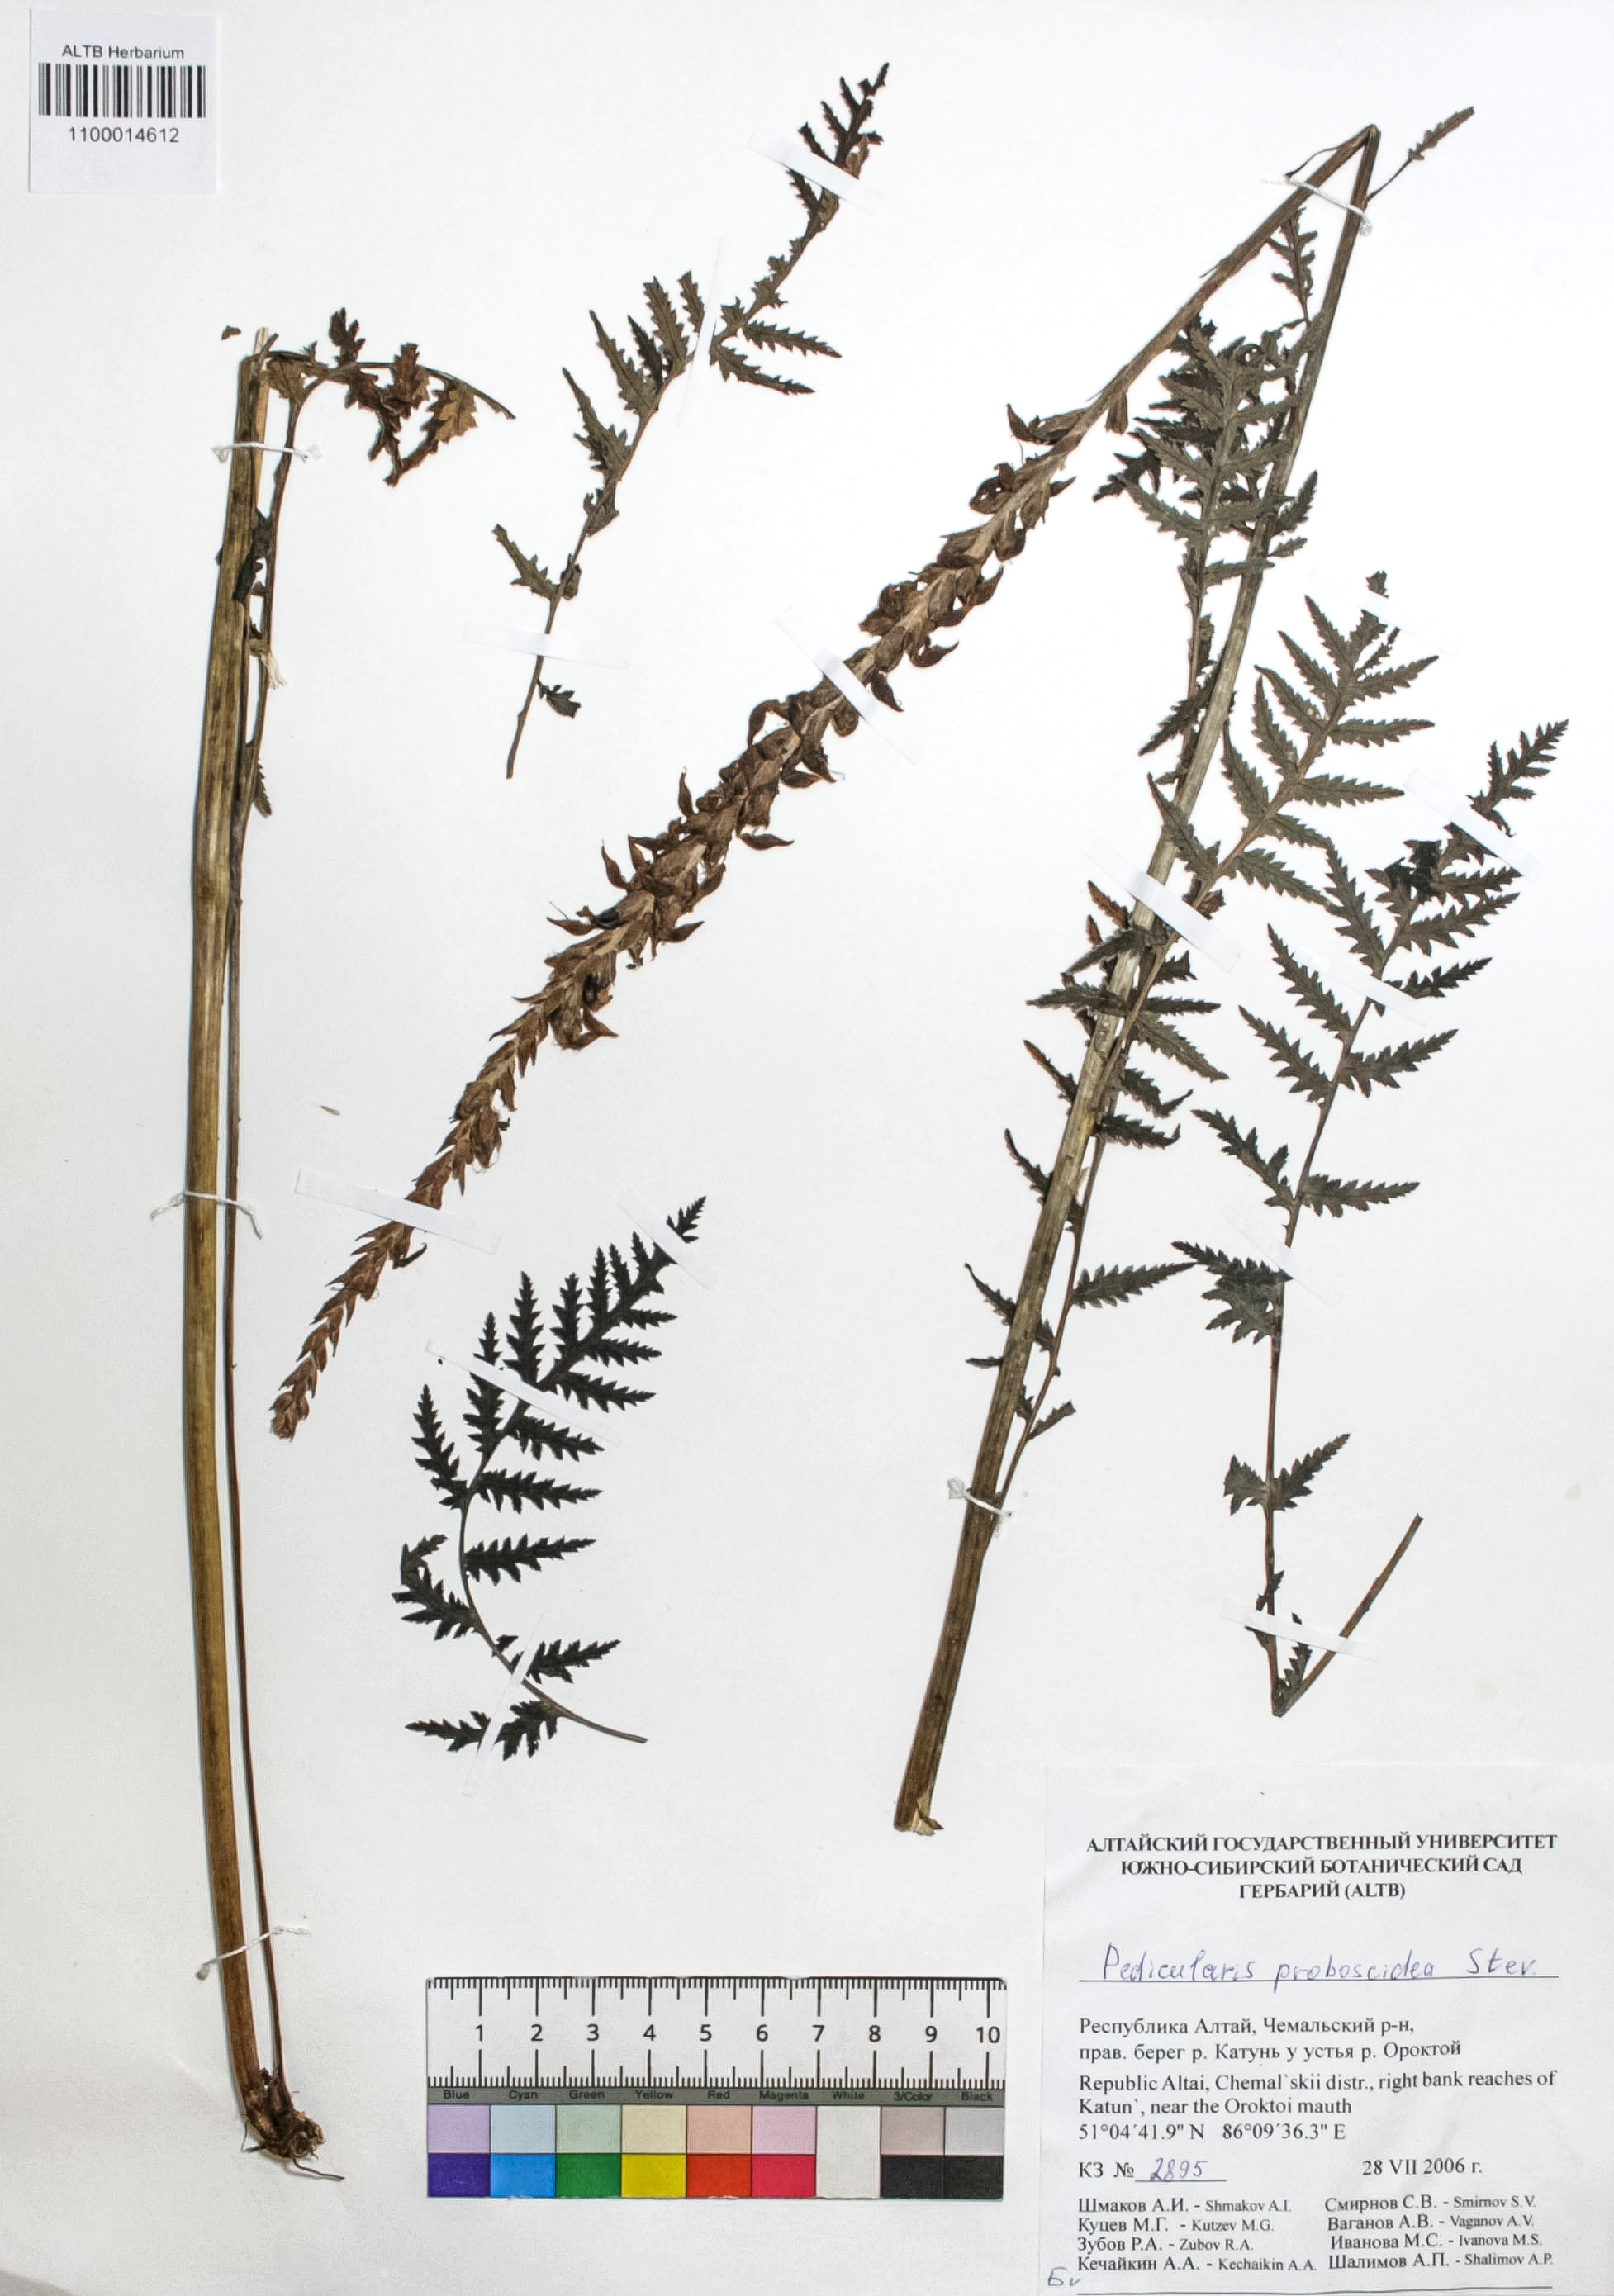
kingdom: Plantae
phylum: Tracheophyta
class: Magnoliopsida
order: Lamiales
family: Orobanchaceae
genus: Pedicularis
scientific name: Pedicularis proboscidea
